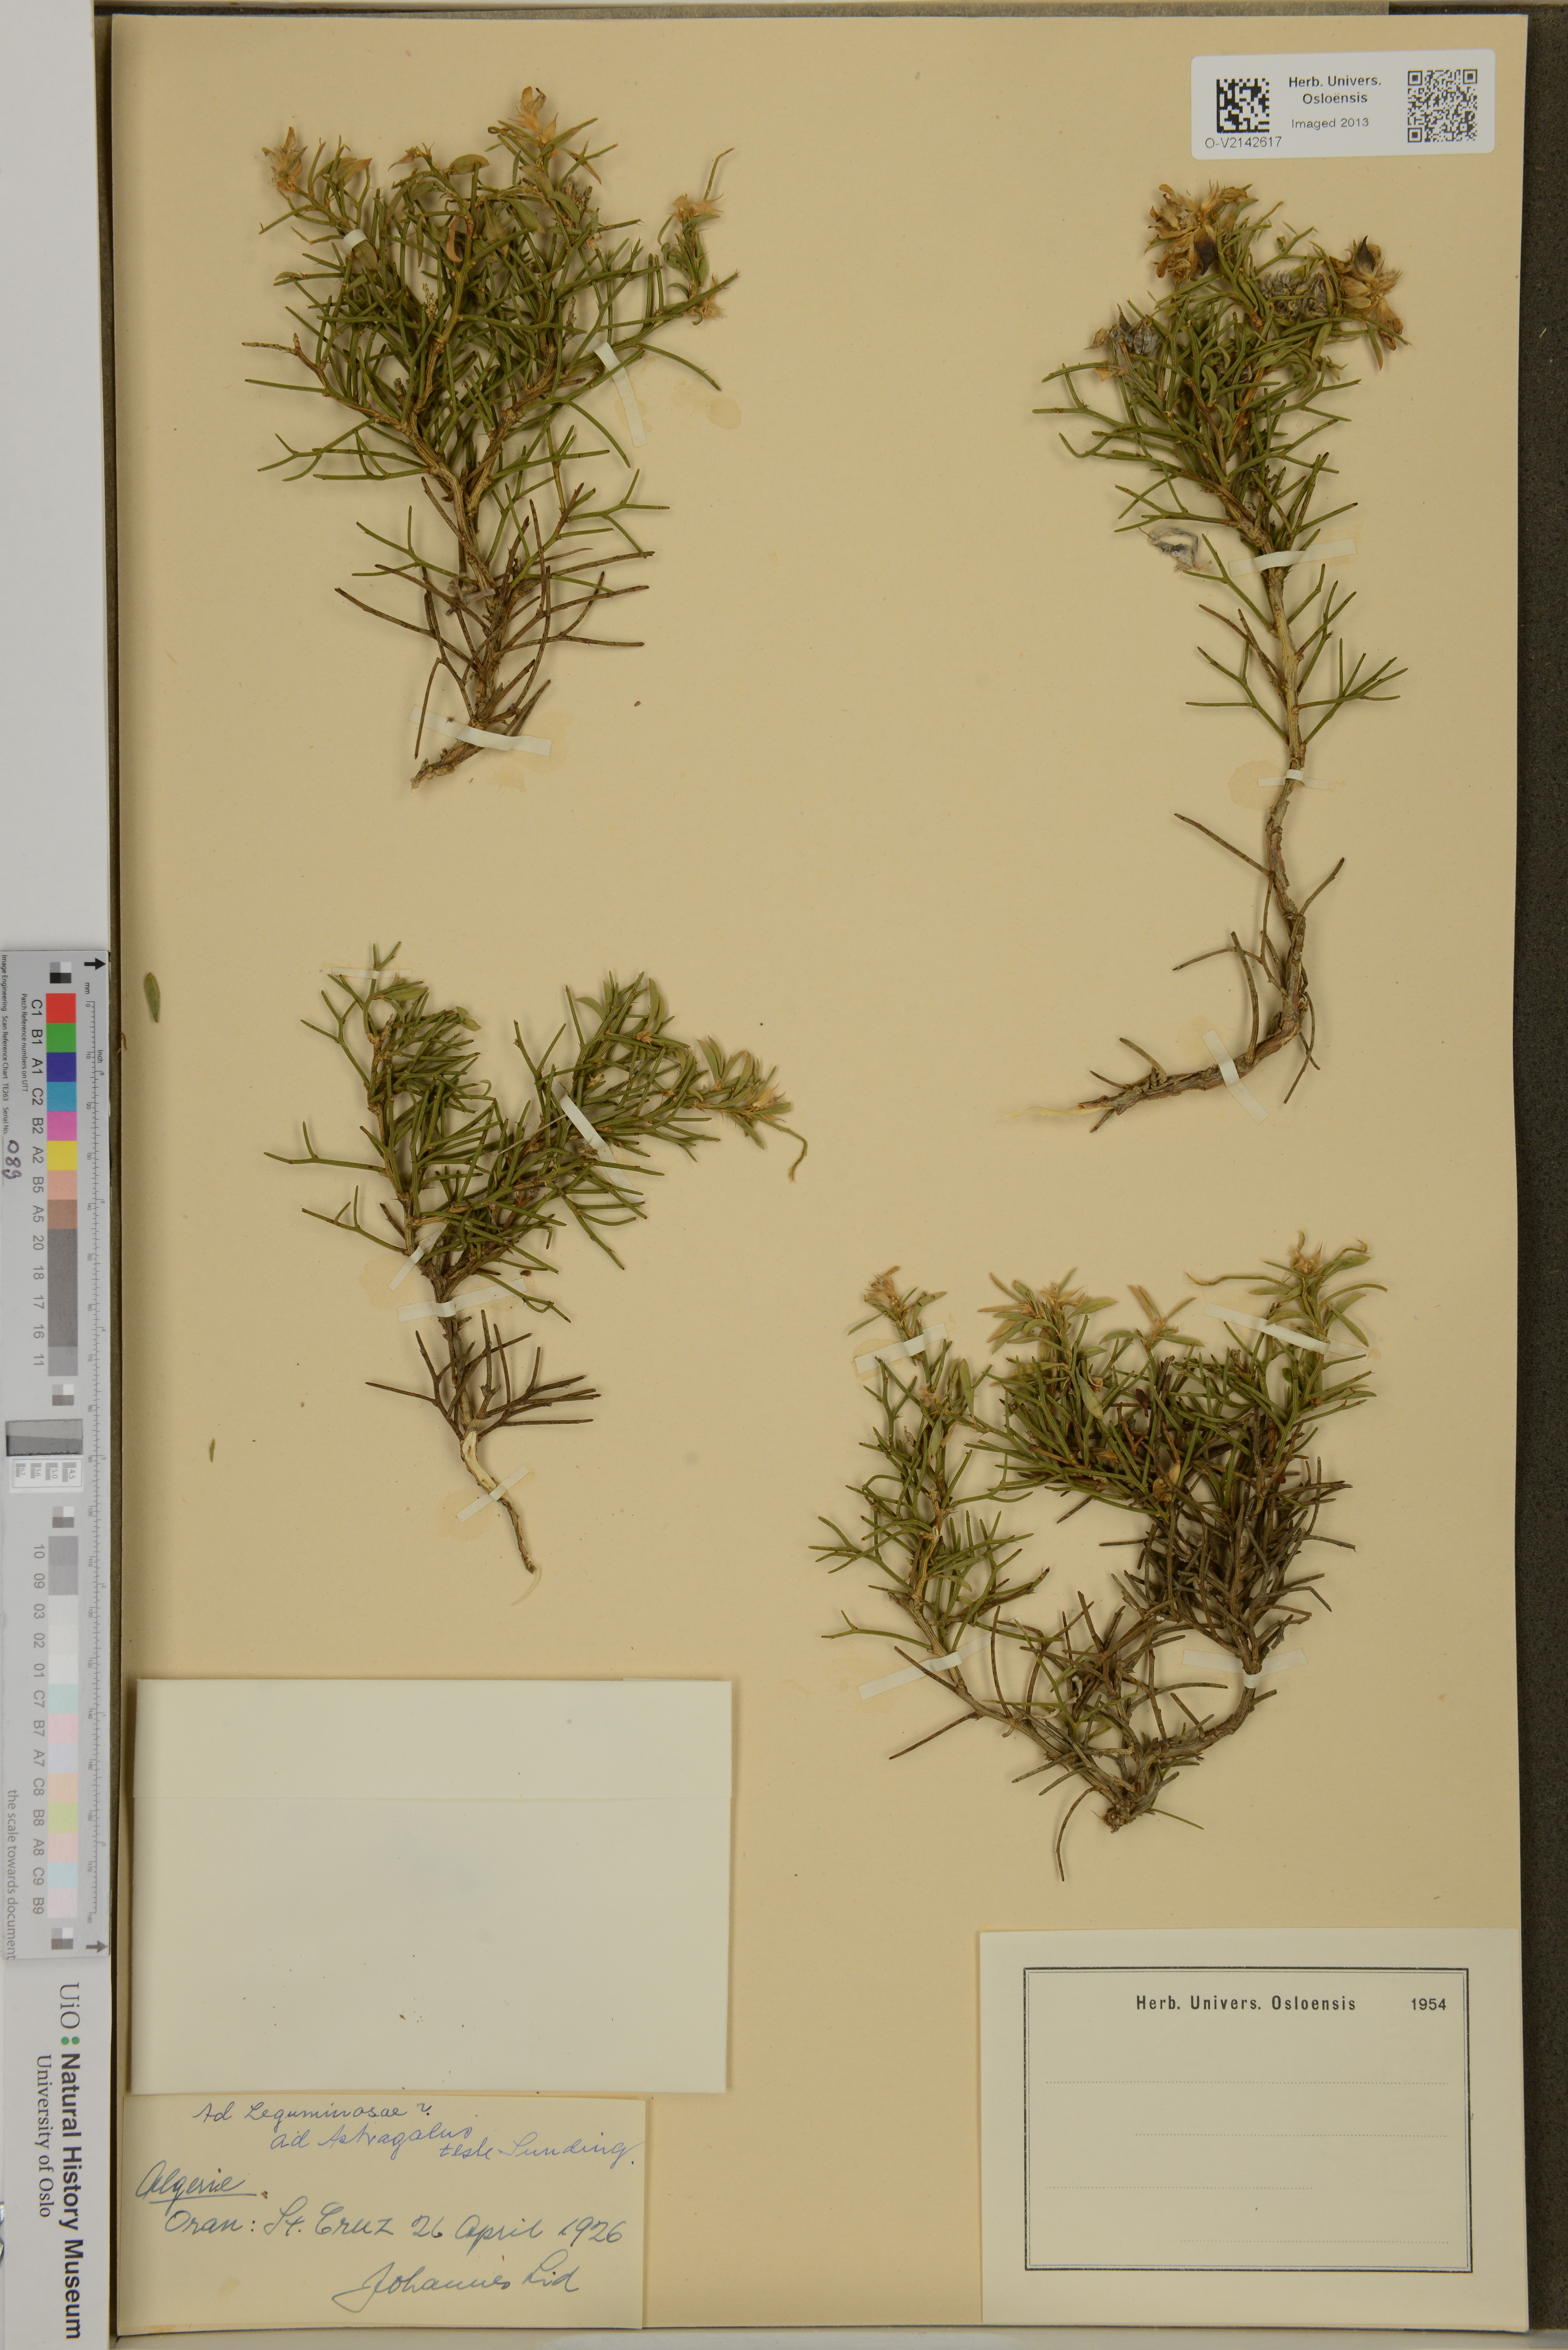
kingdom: Plantae
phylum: Tracheophyta
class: Magnoliopsida
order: Fabales
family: Fabaceae
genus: Astragalus
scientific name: Astragalus
